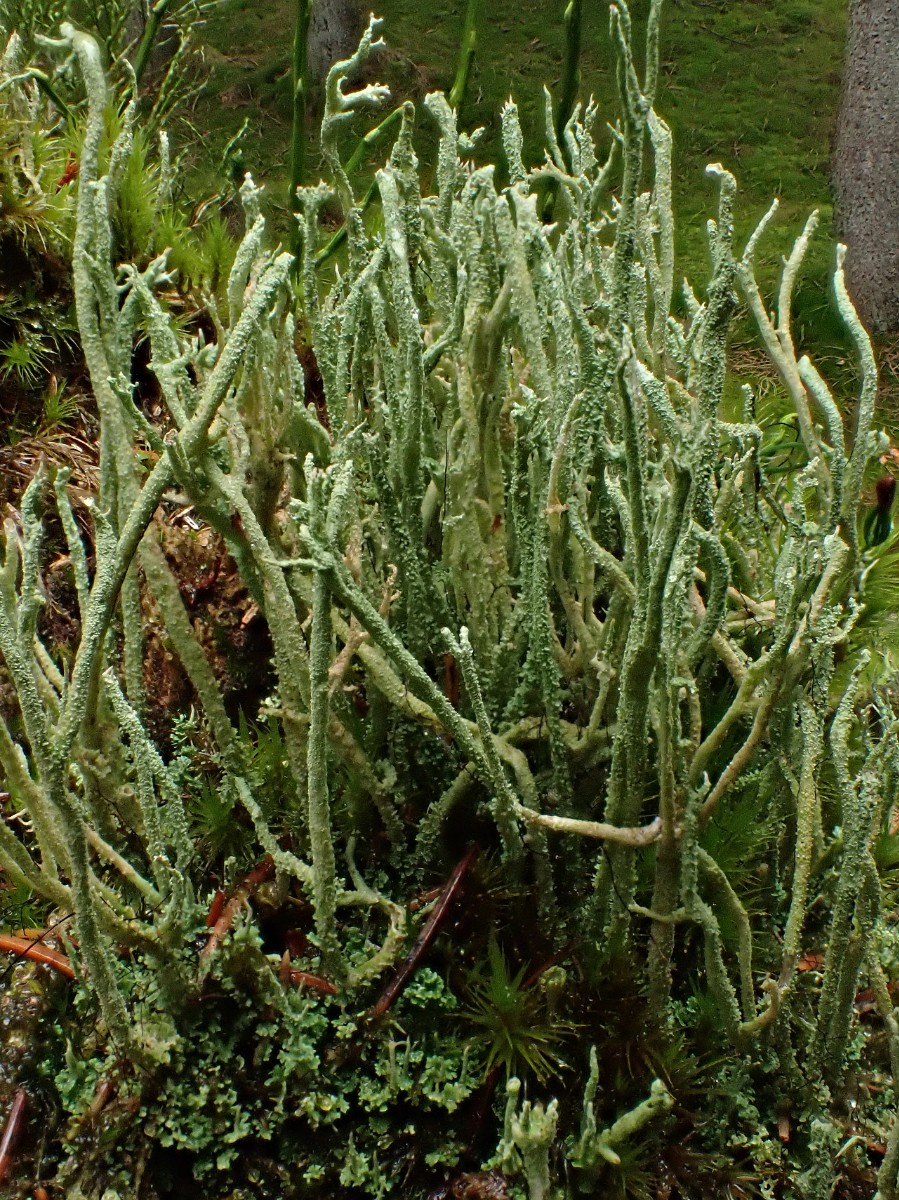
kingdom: Fungi
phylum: Ascomycota
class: Lecanoromycetes
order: Lecanorales
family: Cladoniaceae
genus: Cladonia
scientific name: Cladonia glauca
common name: grågrøn bægerlav
